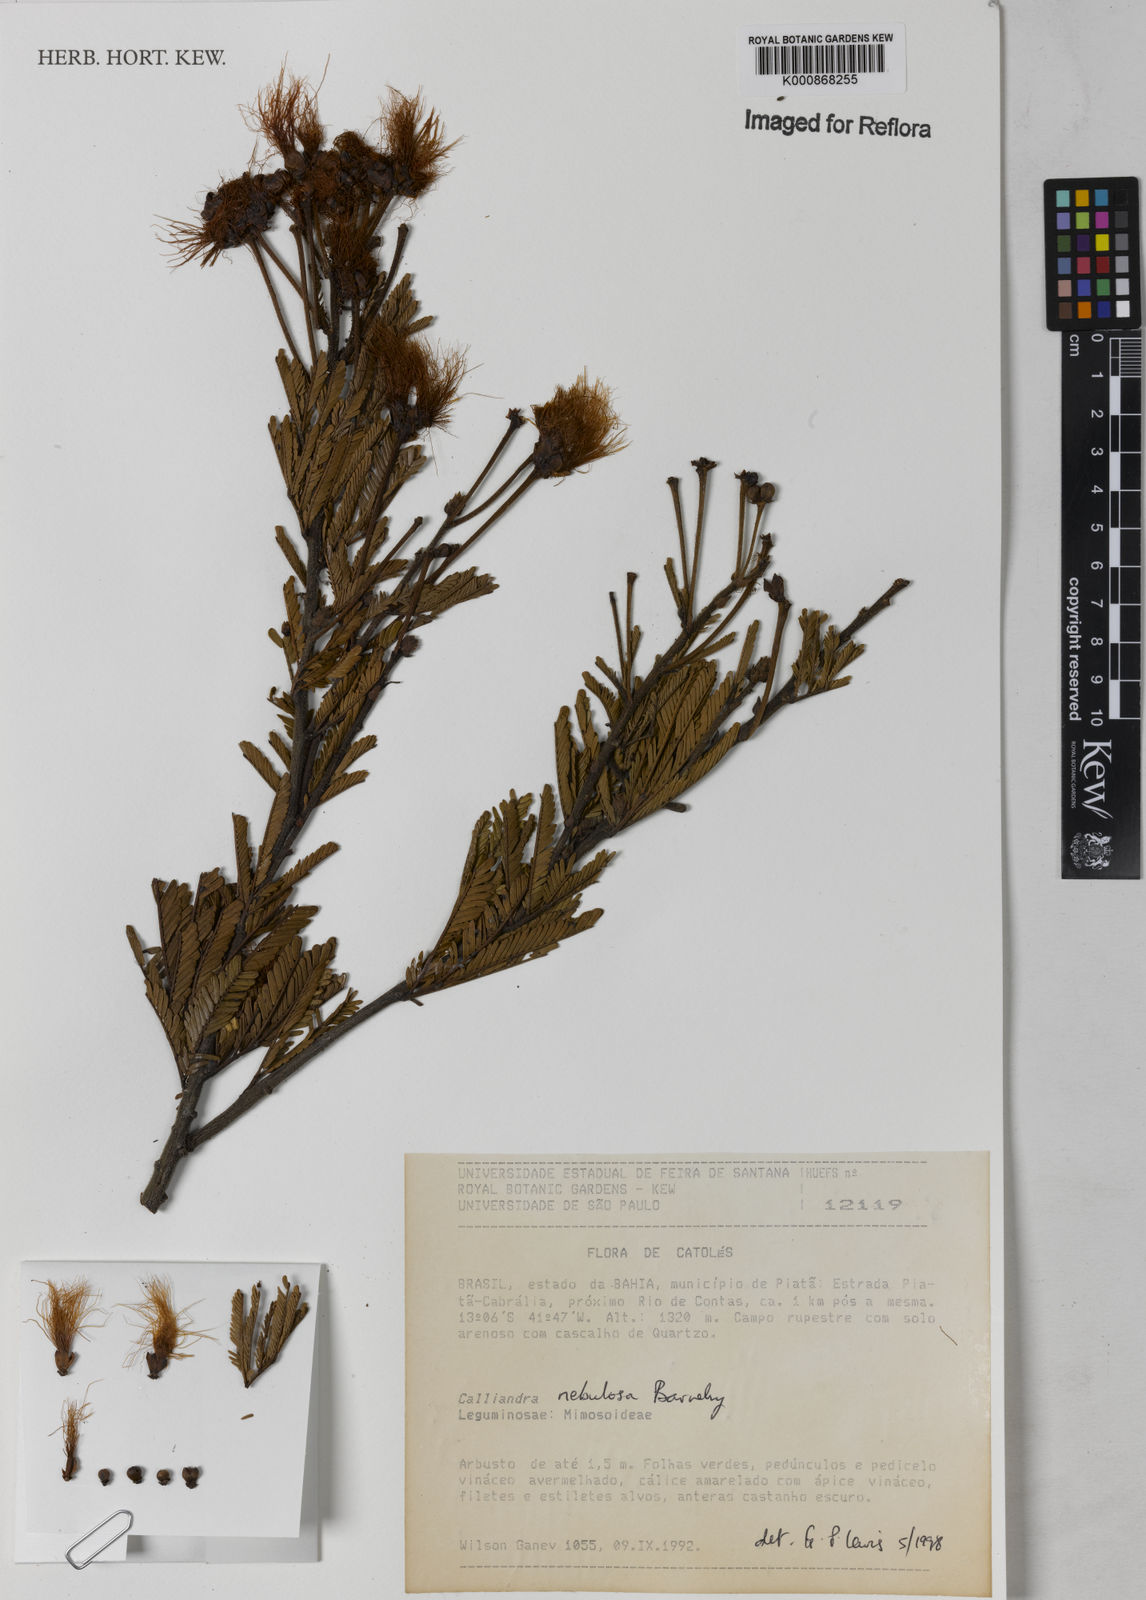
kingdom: Plantae
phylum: Tracheophyta
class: Magnoliopsida
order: Fabales
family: Fabaceae
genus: Calliandra
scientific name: Calliandra nebulosa
